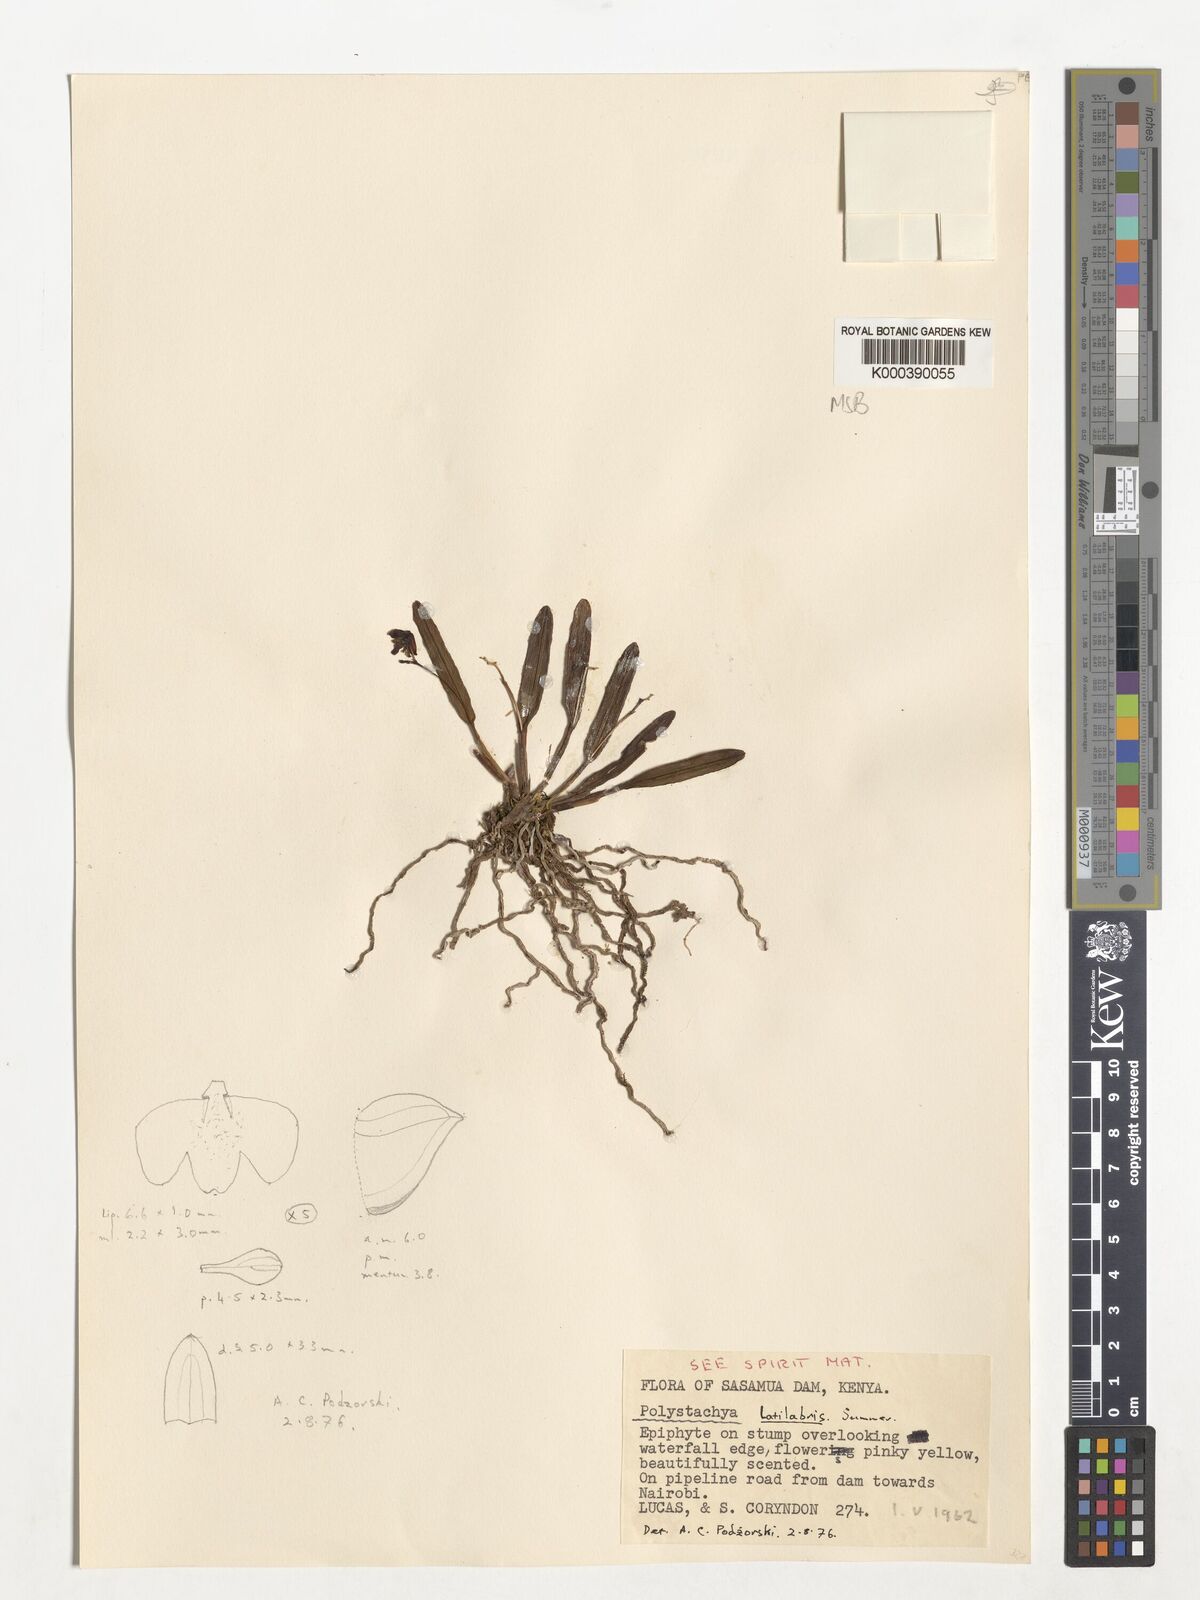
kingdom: Plantae
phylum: Tracheophyta
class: Liliopsida
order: Asparagales
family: Orchidaceae
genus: Polystachya
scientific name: Polystachya caespitifica
